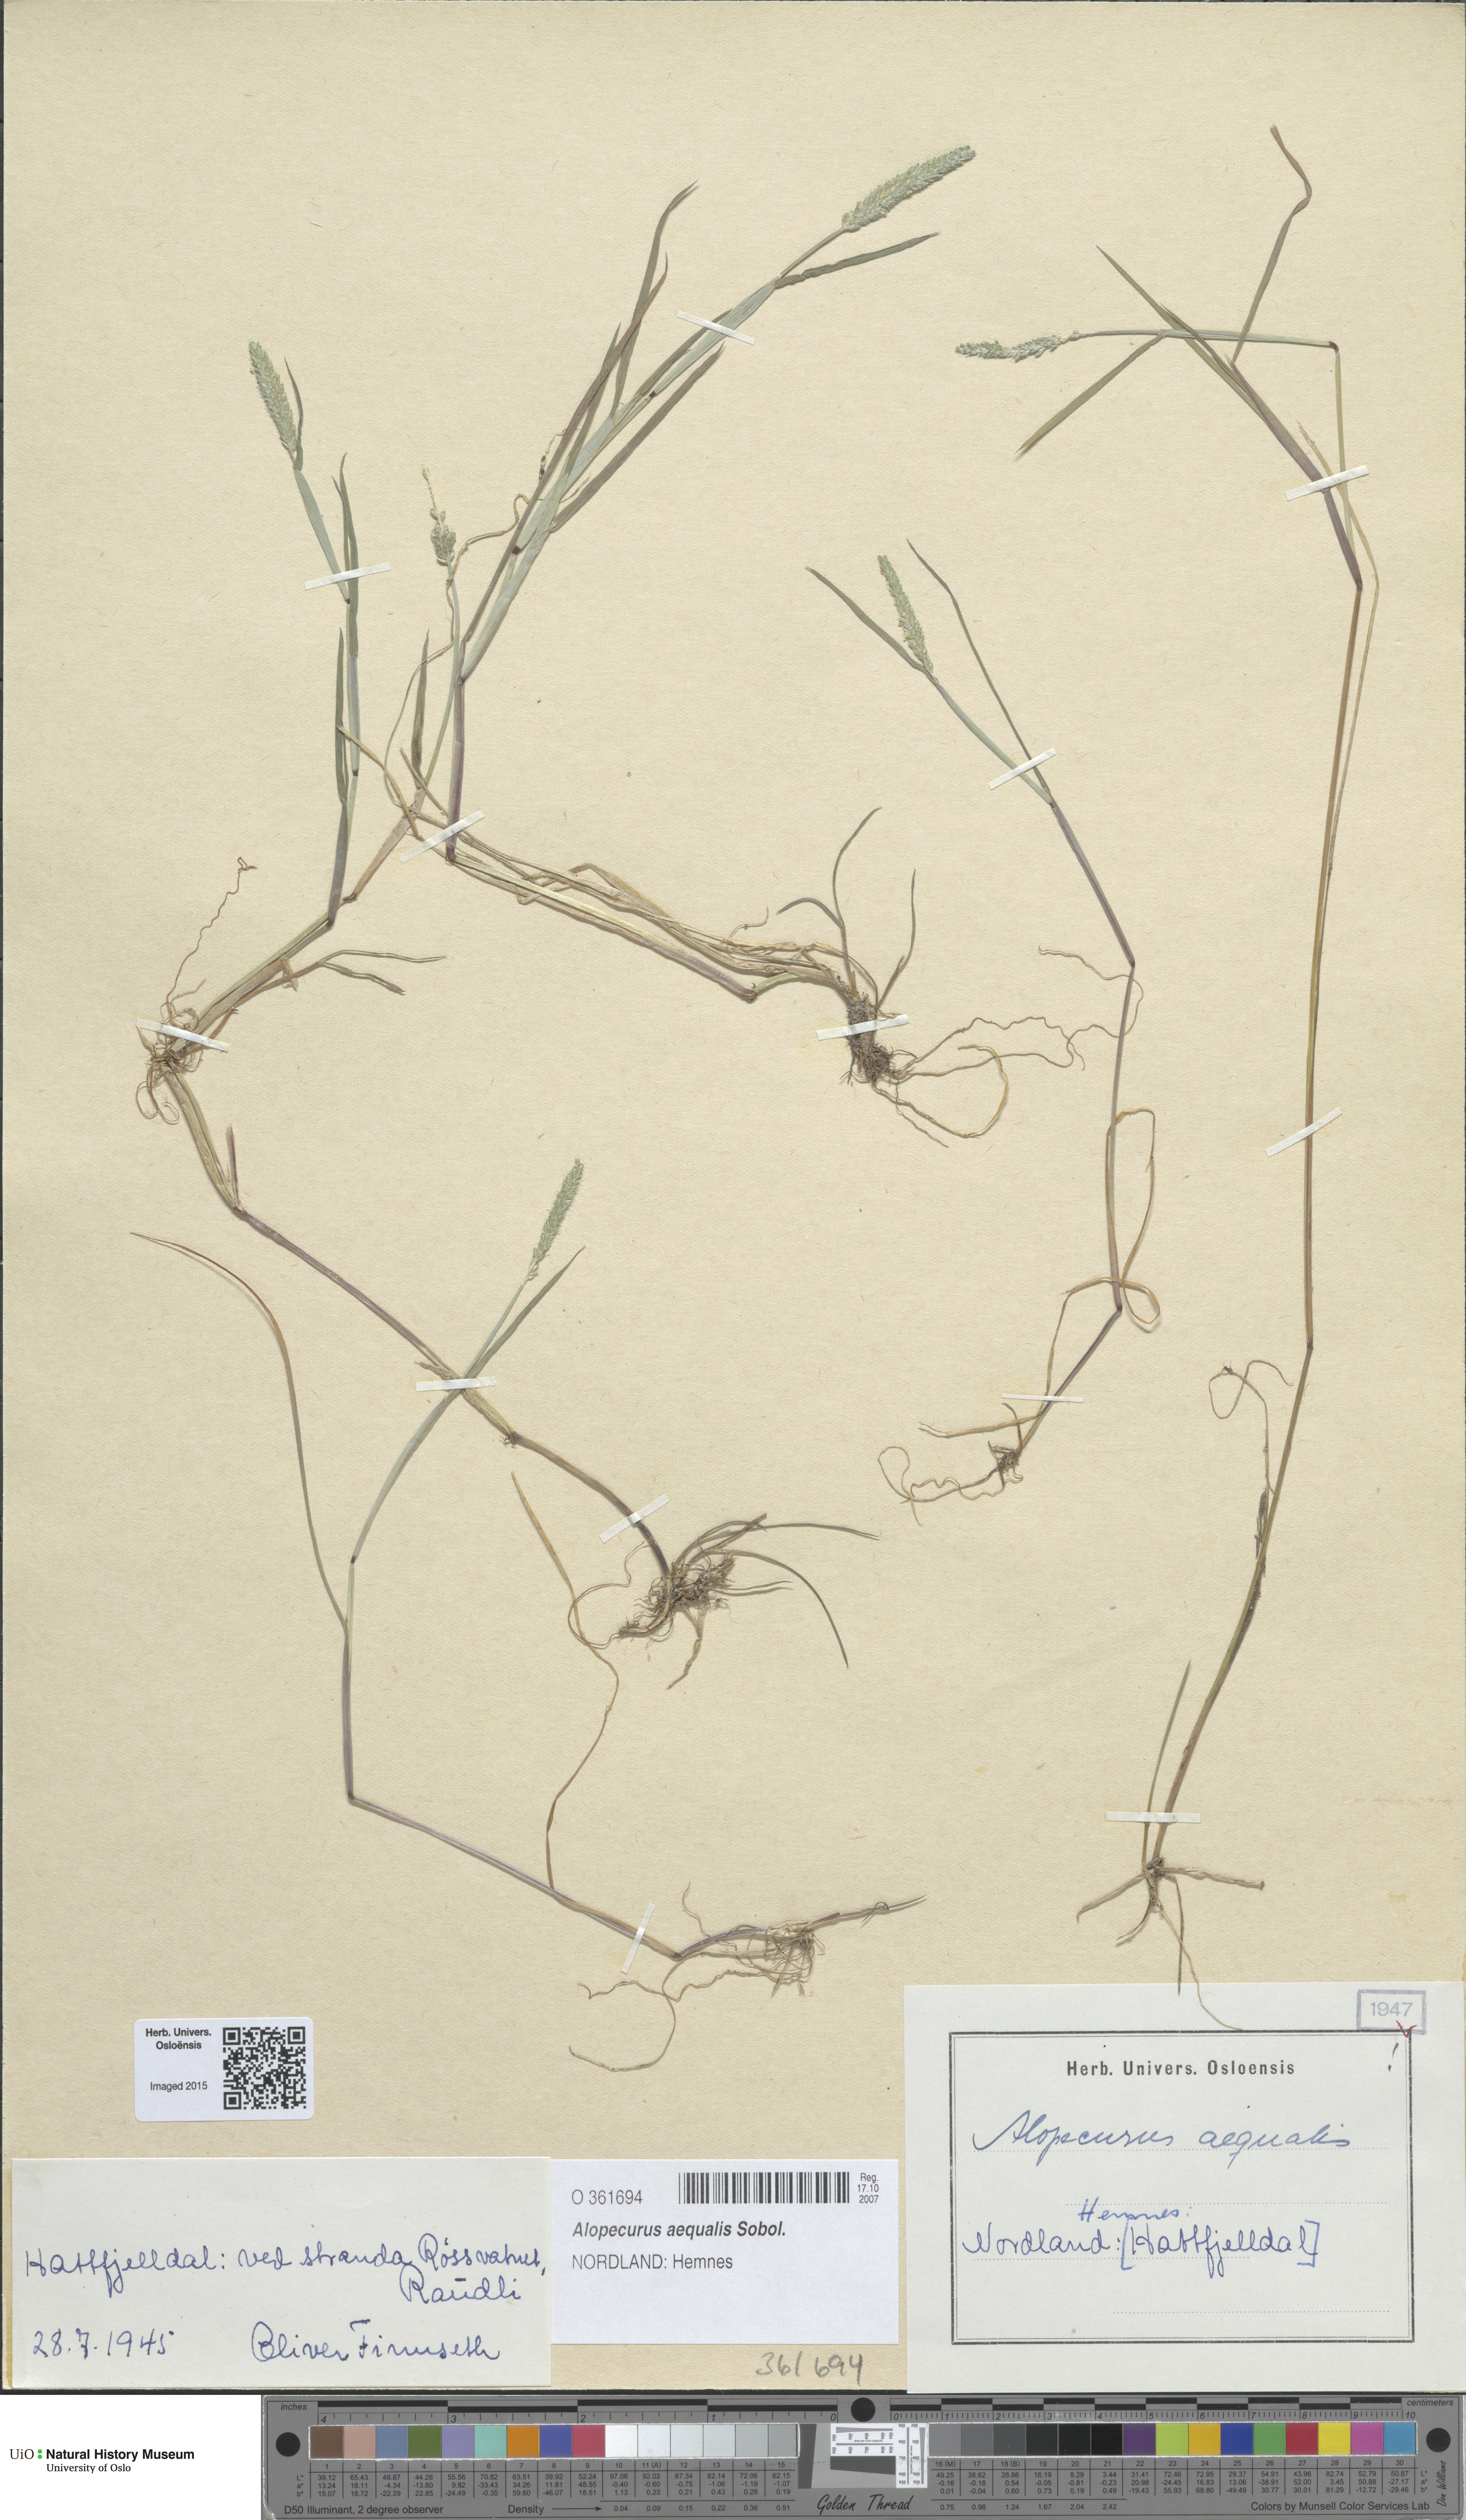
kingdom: Plantae
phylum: Tracheophyta
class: Liliopsida
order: Poales
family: Poaceae
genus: Alopecurus
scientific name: Alopecurus aequalis
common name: Orange foxtail
